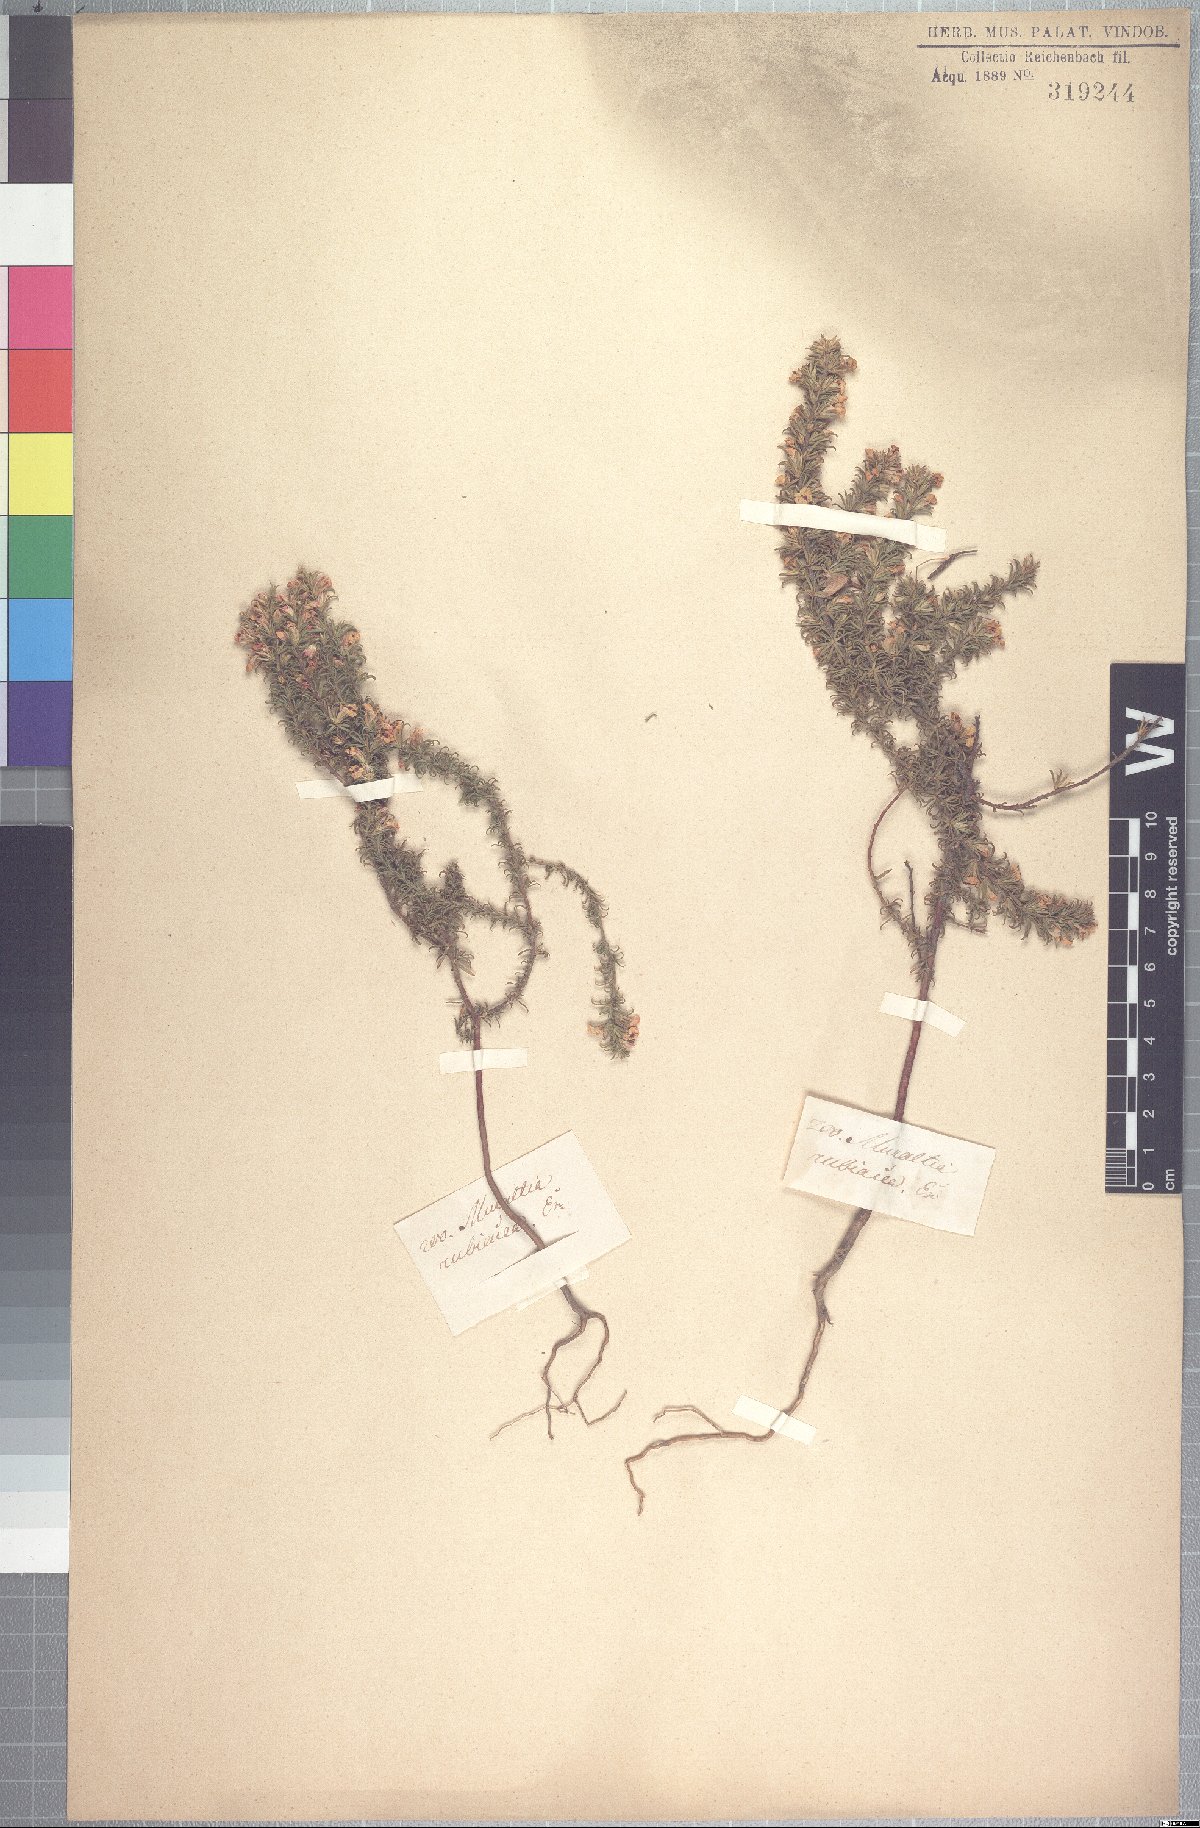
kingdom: Plantae
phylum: Tracheophyta
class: Magnoliopsida
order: Fabales
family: Polygalaceae
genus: Muraltia
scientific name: Muraltia rubeacea
